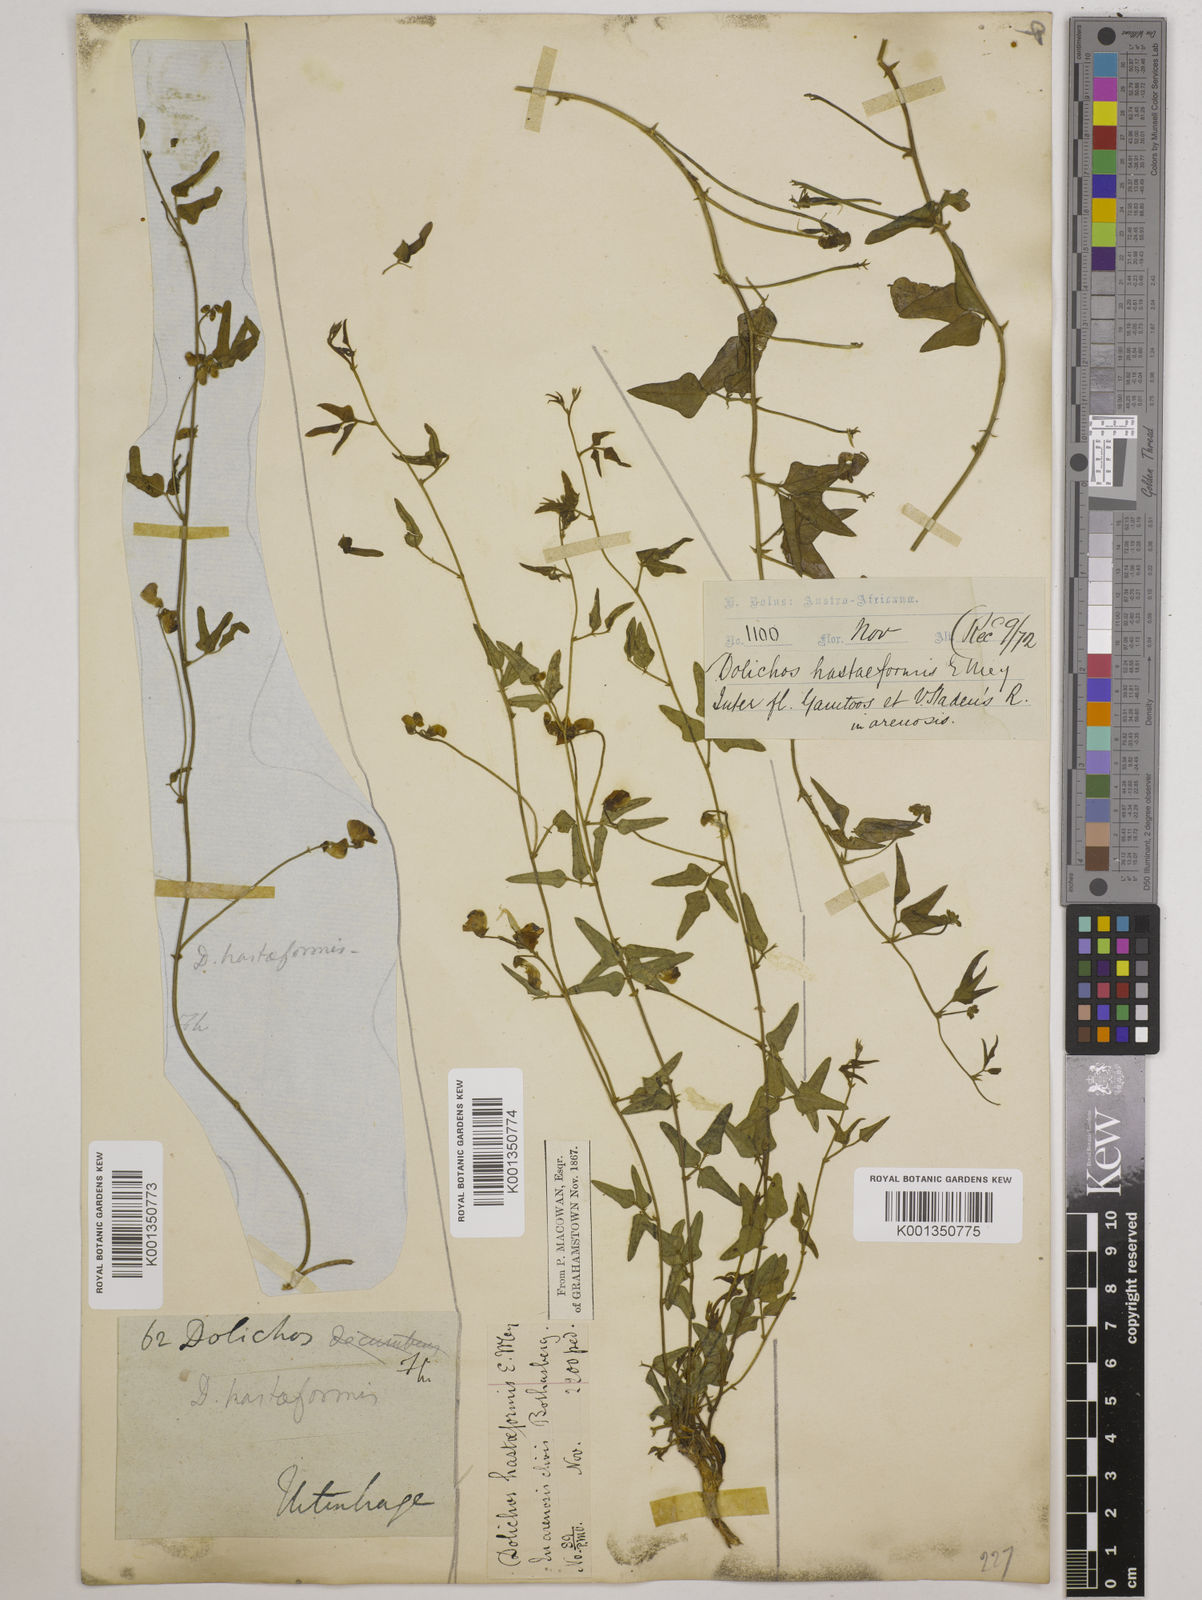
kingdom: Plantae
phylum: Tracheophyta
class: Magnoliopsida
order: Fabales
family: Fabaceae
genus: Dolichos
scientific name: Dolichos
